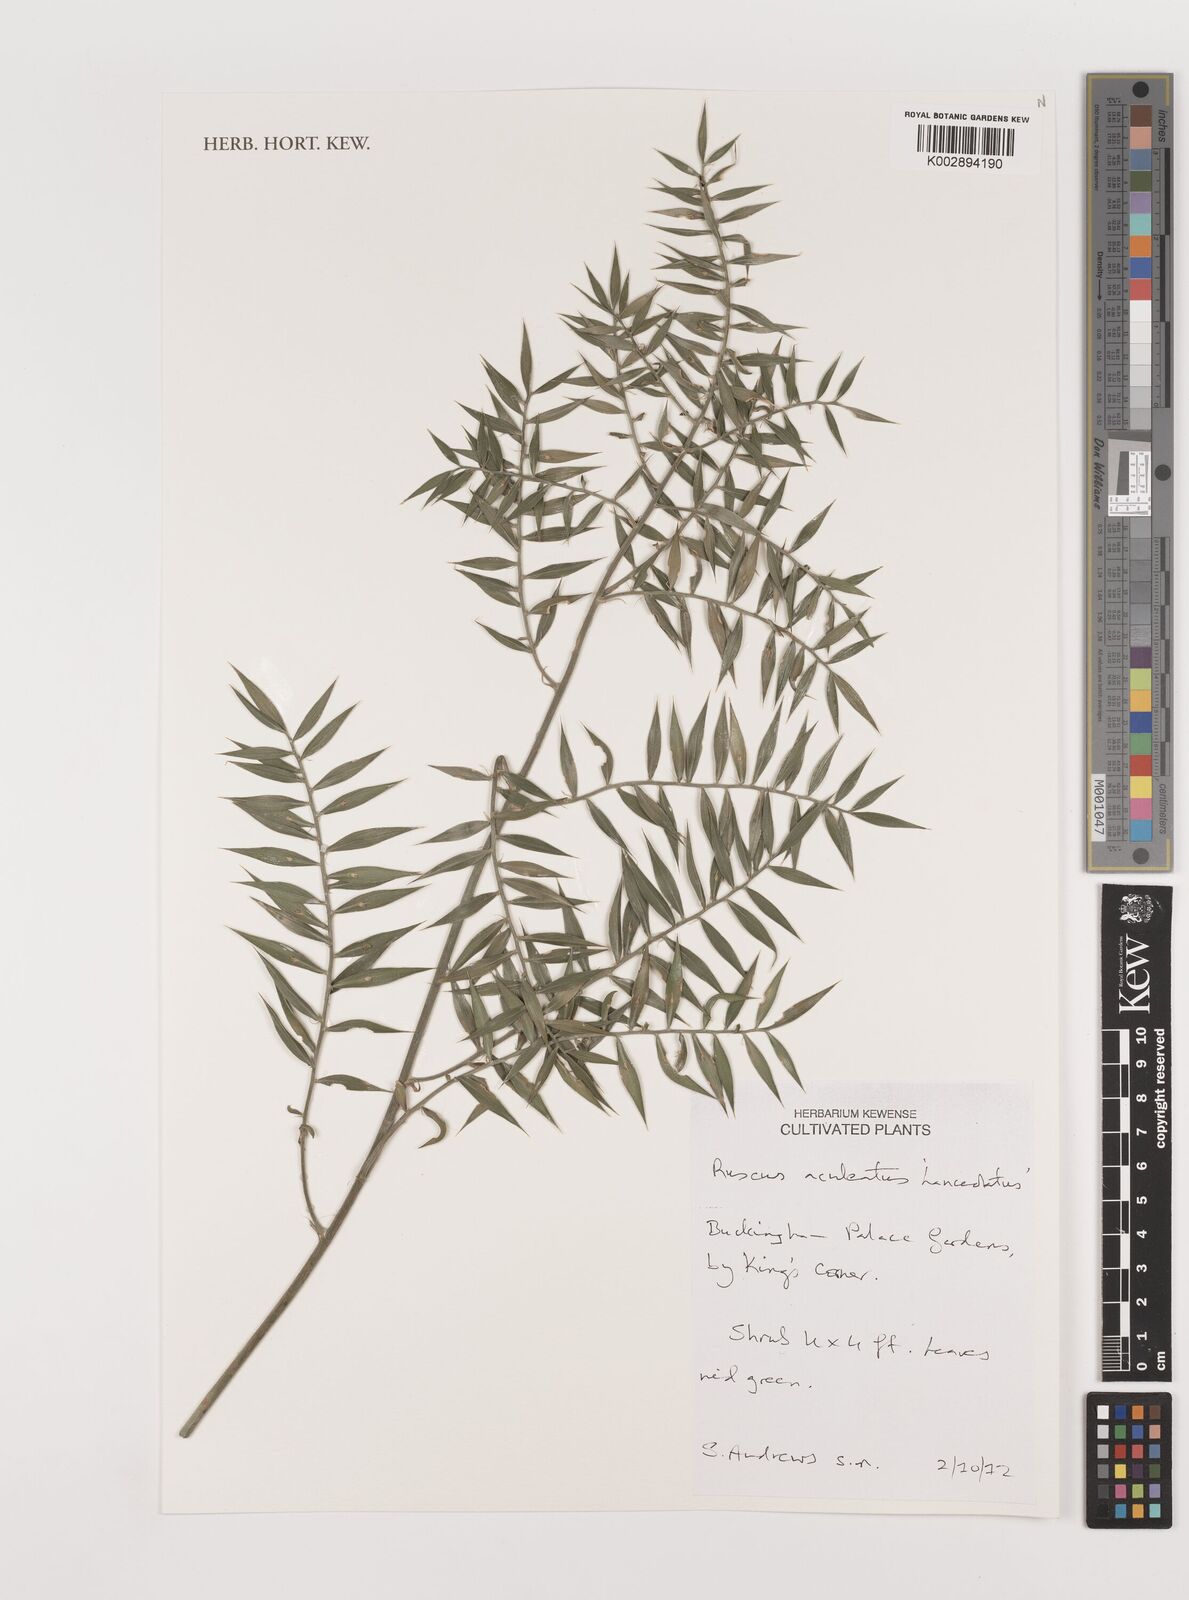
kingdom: Plantae
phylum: Tracheophyta
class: Liliopsida
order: Asparagales
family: Asparagaceae
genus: Ruscus
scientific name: Ruscus aculeatus
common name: Butcher's-broom
